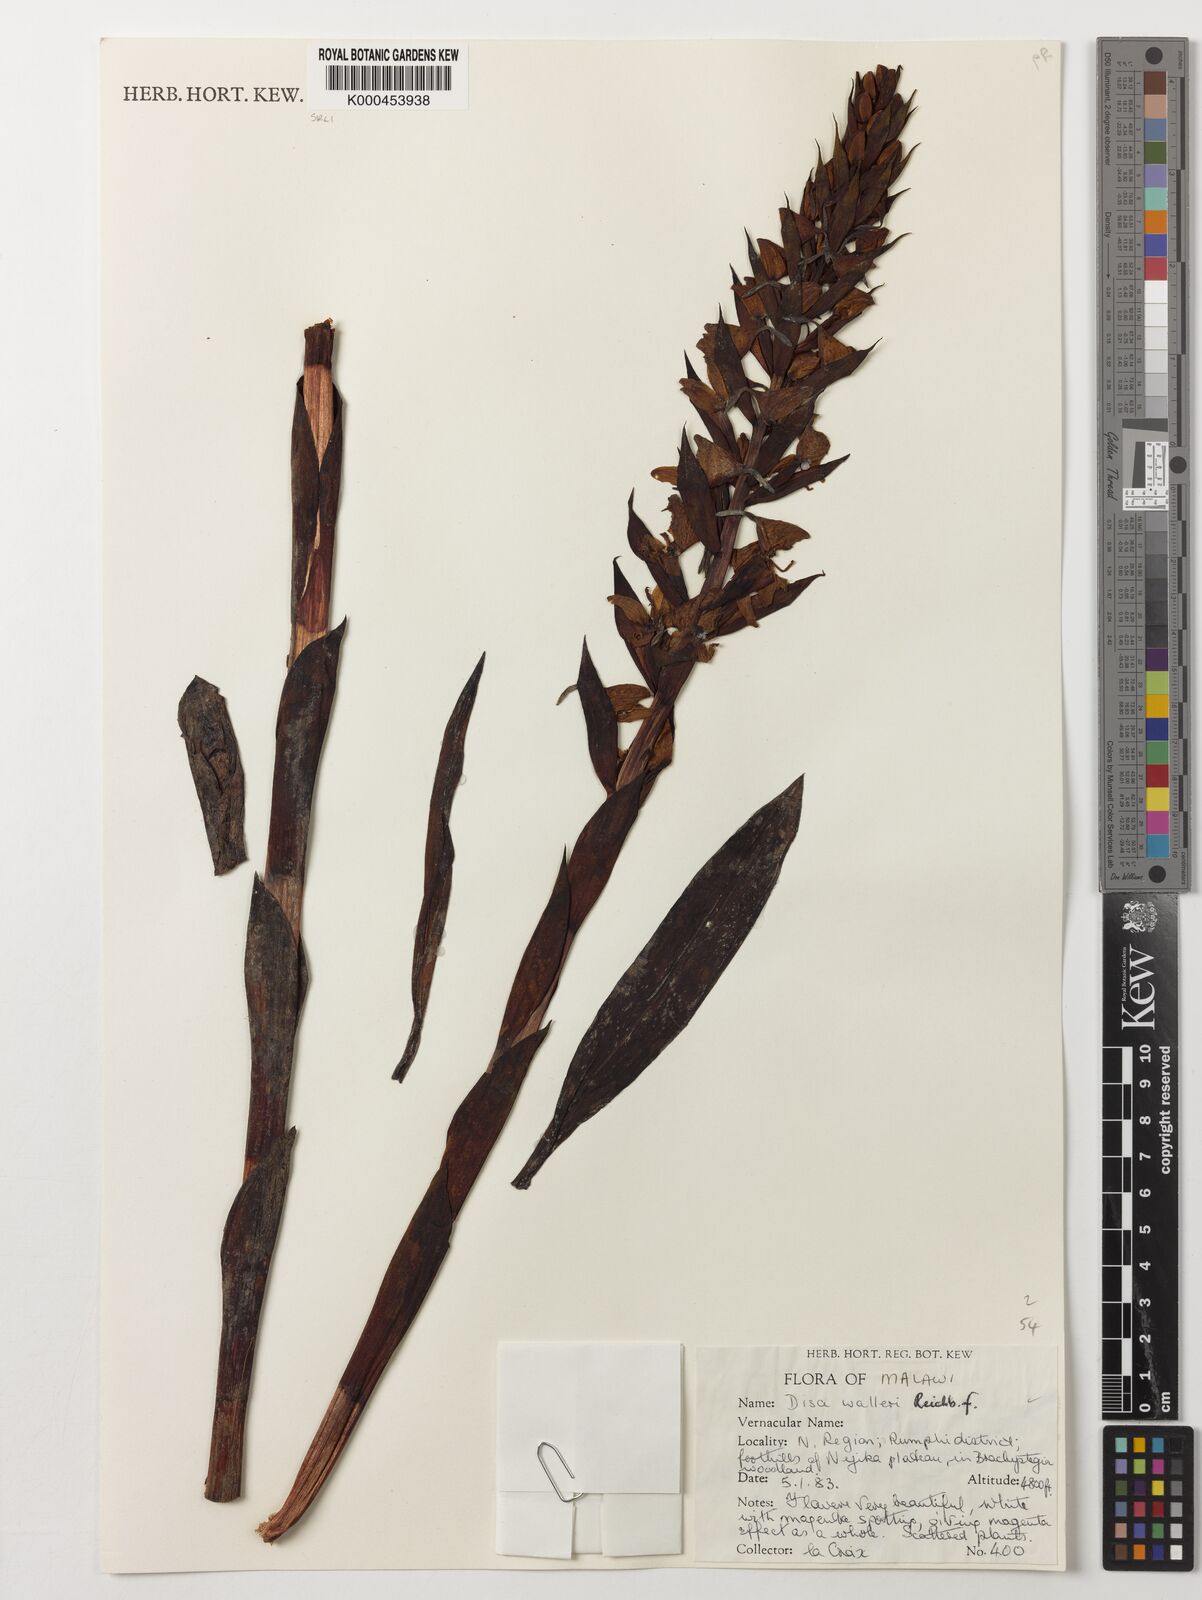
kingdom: Plantae
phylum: Tracheophyta
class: Liliopsida
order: Asparagales
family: Orchidaceae
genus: Disa
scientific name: Disa walleri
